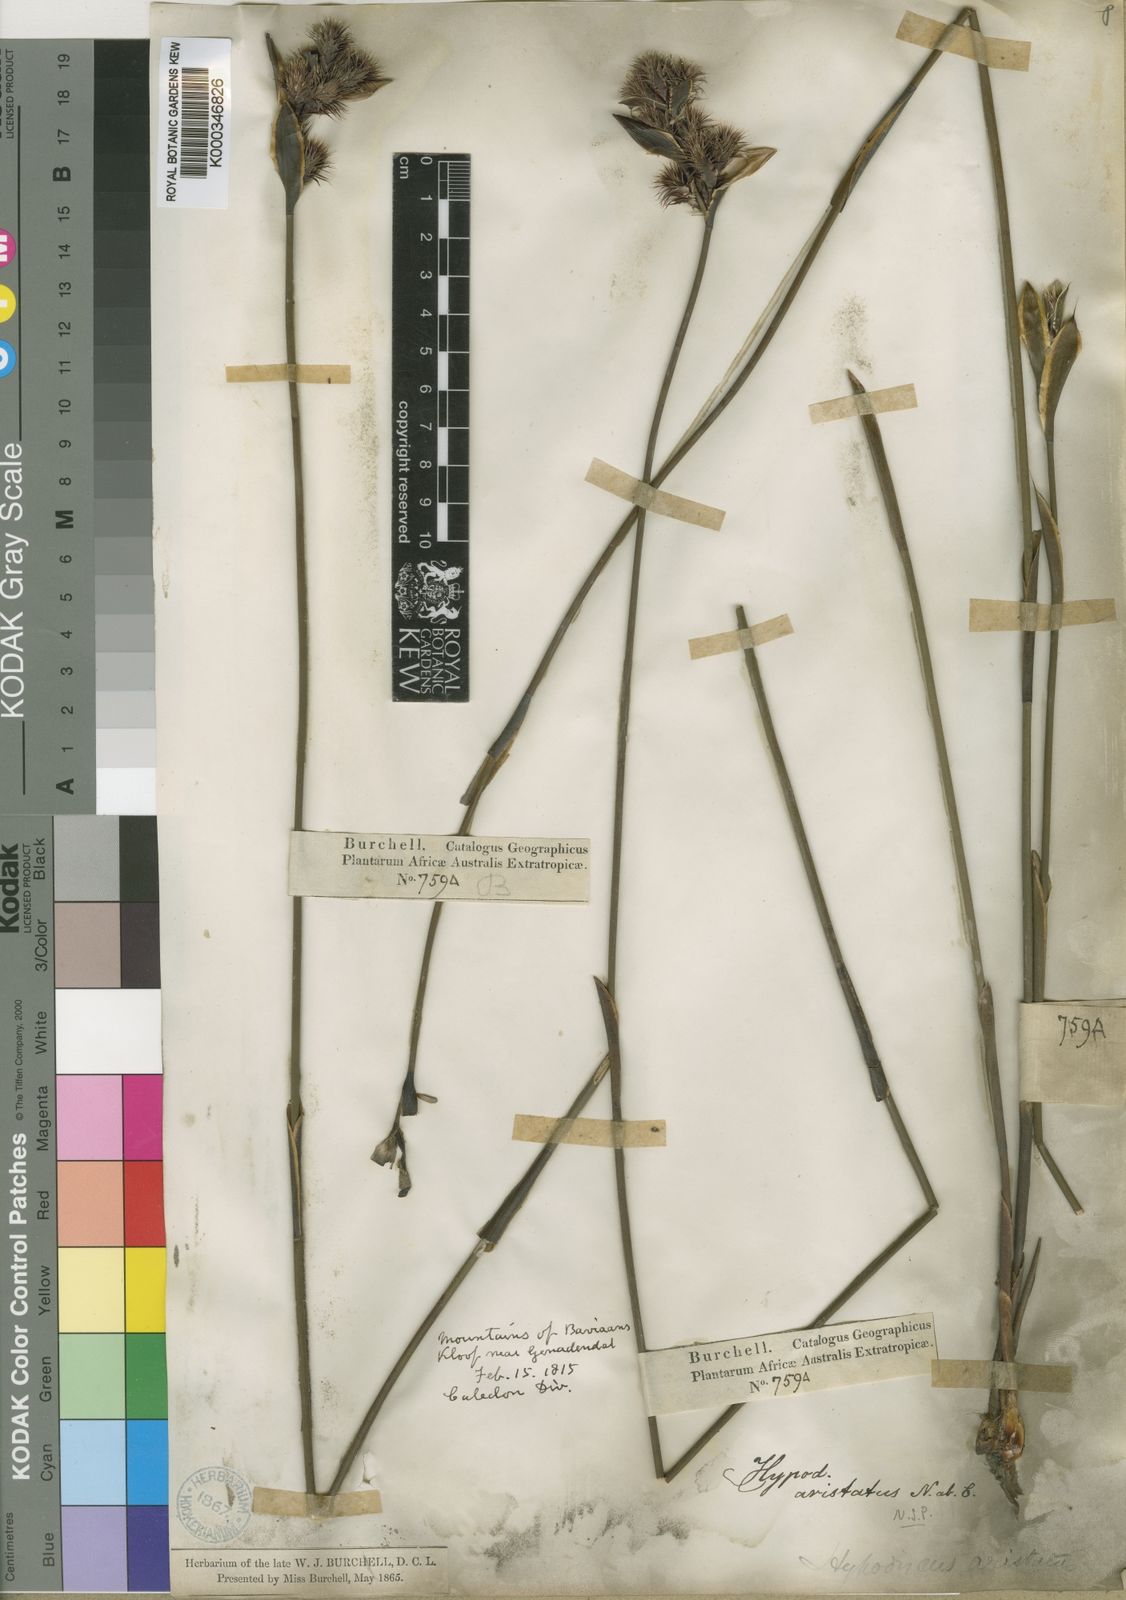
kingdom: Plantae
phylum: Tracheophyta
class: Liliopsida
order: Poales
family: Restionaceae
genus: Hypodiscus
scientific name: Hypodiscus aristatus
